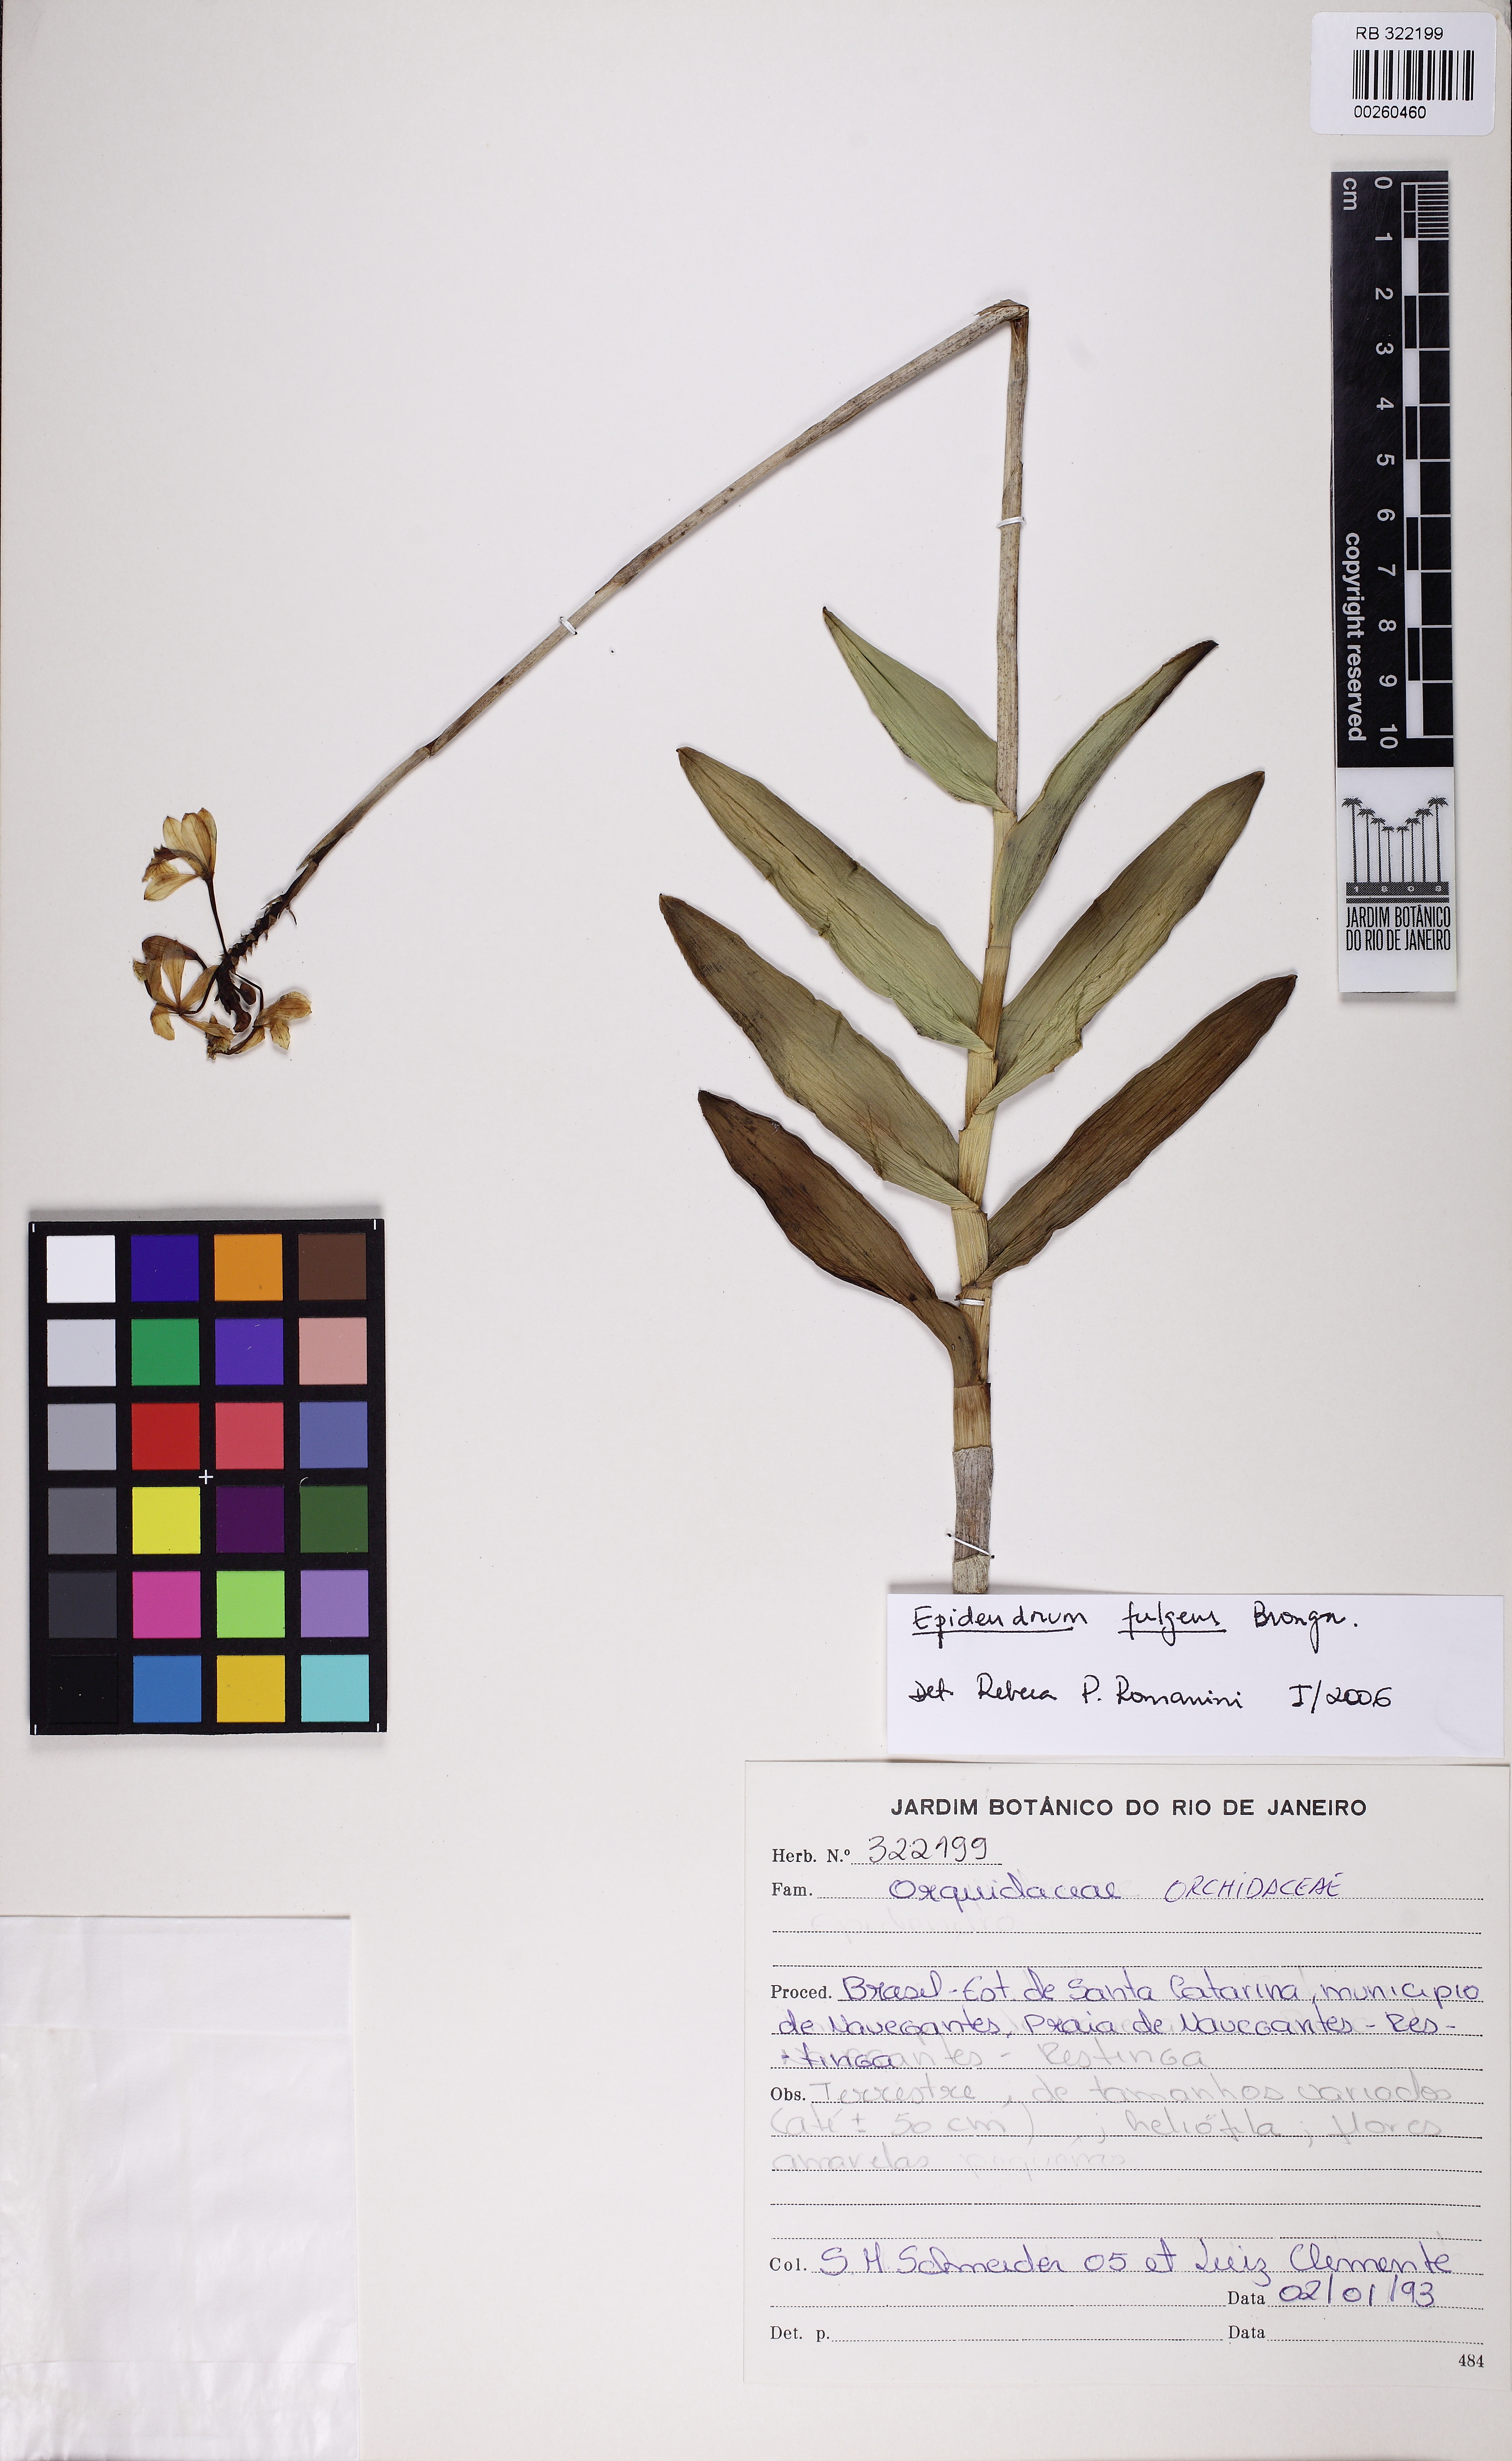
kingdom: Plantae
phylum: Tracheophyta
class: Liliopsida
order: Asparagales
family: Orchidaceae
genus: Epidendrum
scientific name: Epidendrum fulgens
